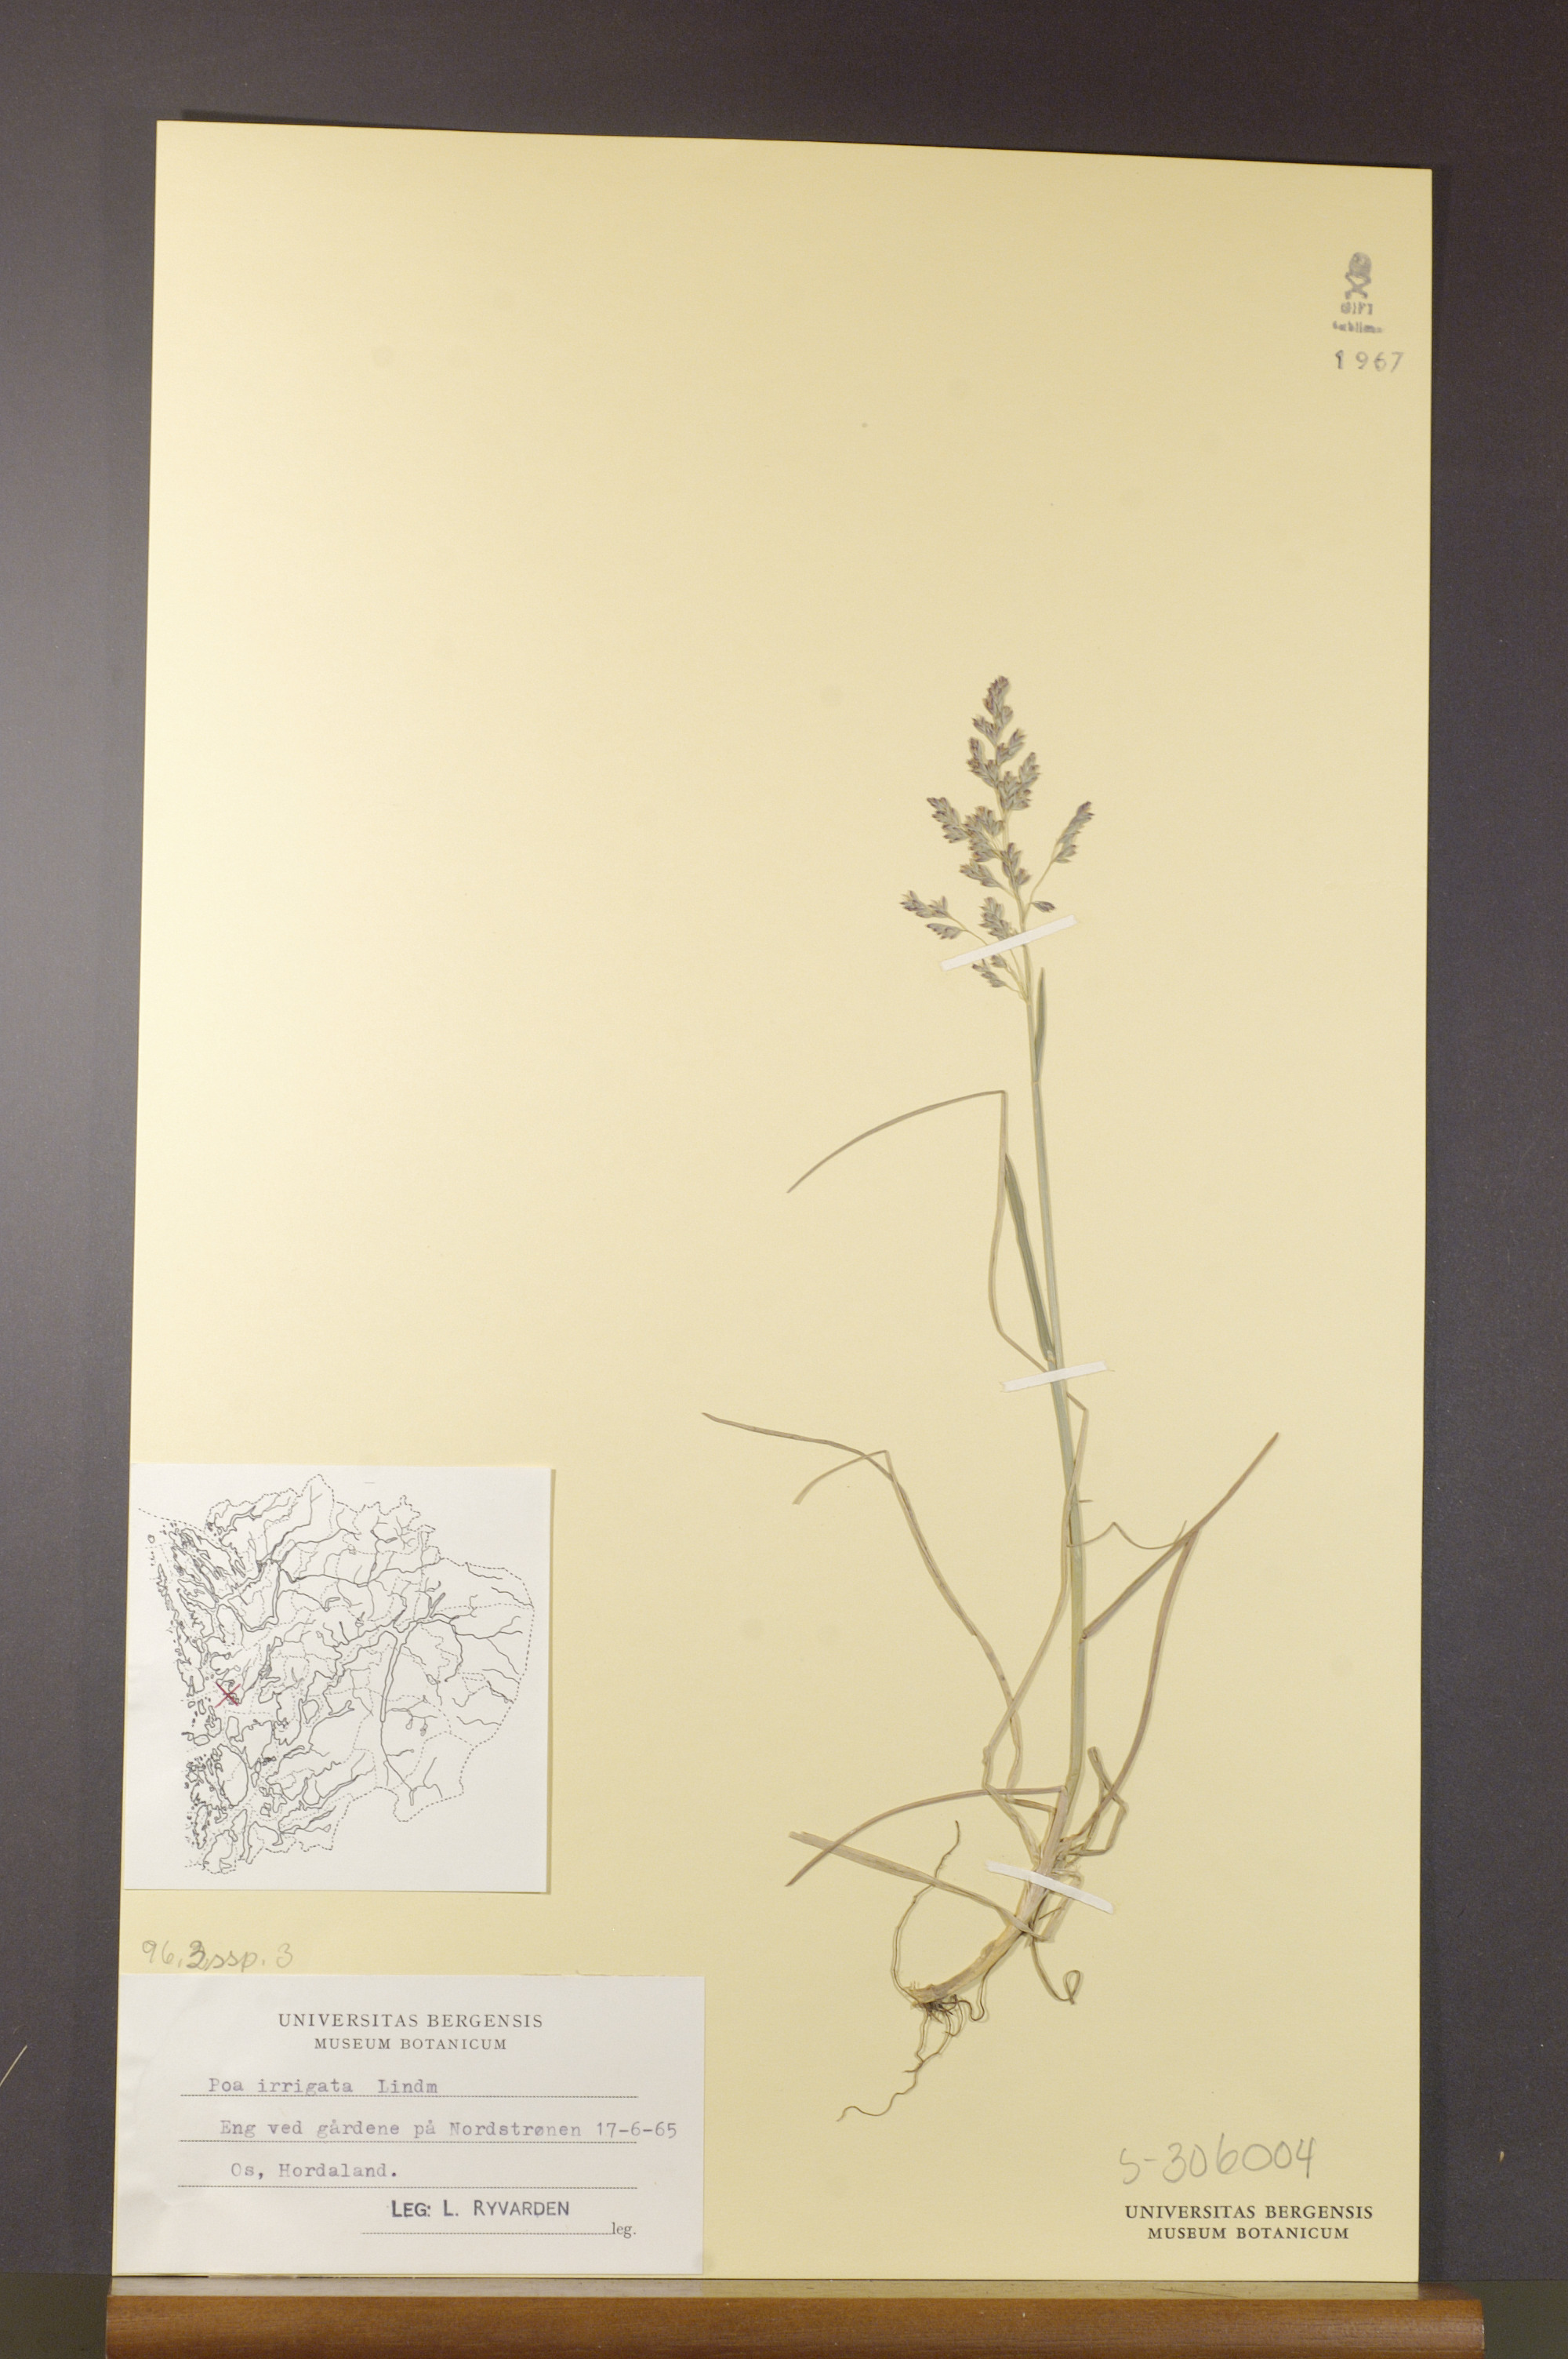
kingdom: Plantae
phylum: Tracheophyta
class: Liliopsida
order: Poales
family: Poaceae
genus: Poa
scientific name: Poa humilis
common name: Spreading meadow-grass
